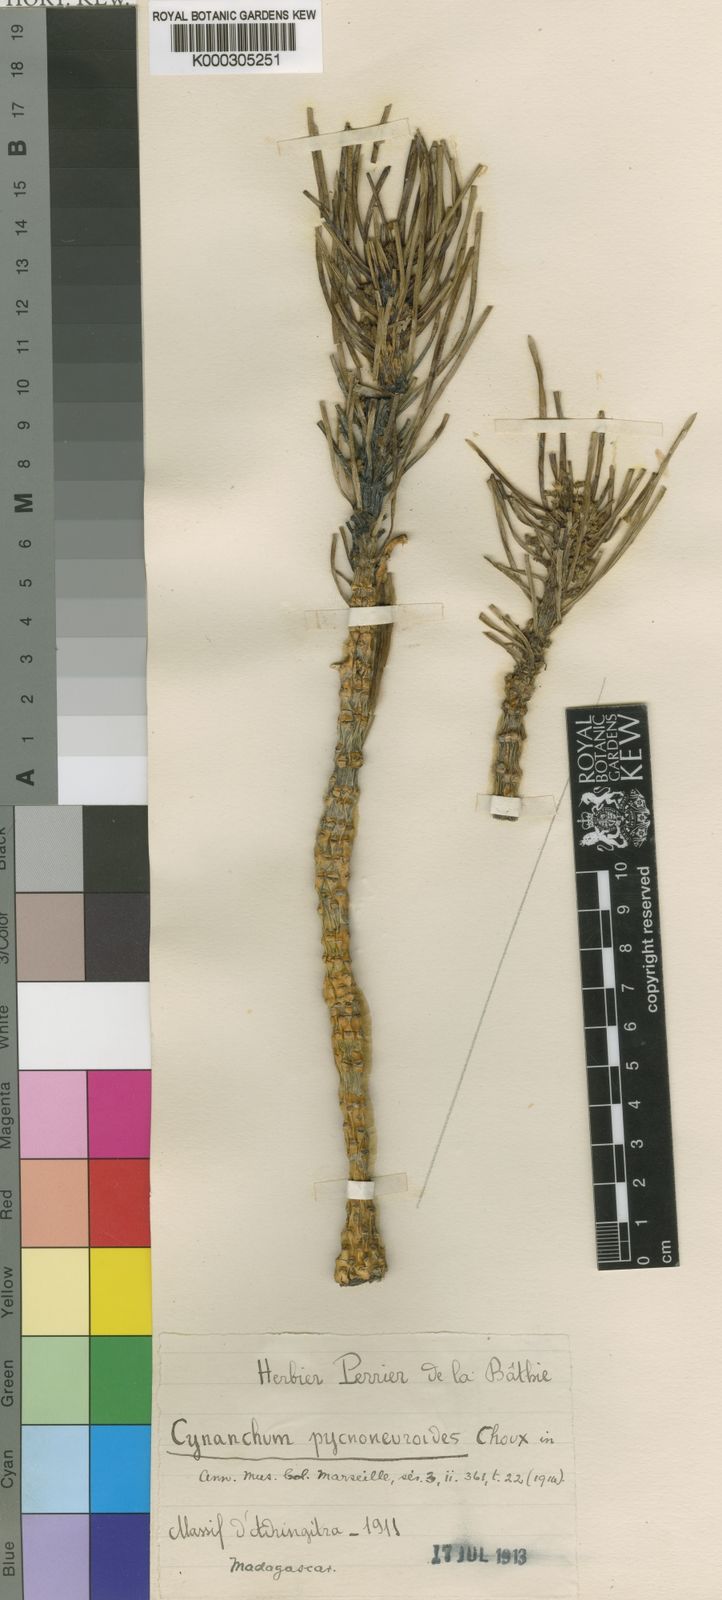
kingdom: Plantae
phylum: Tracheophyta
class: Magnoliopsida
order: Gentianales
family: Apocynaceae
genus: Cynanchum
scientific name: Cynanchum pycnoneuroides
